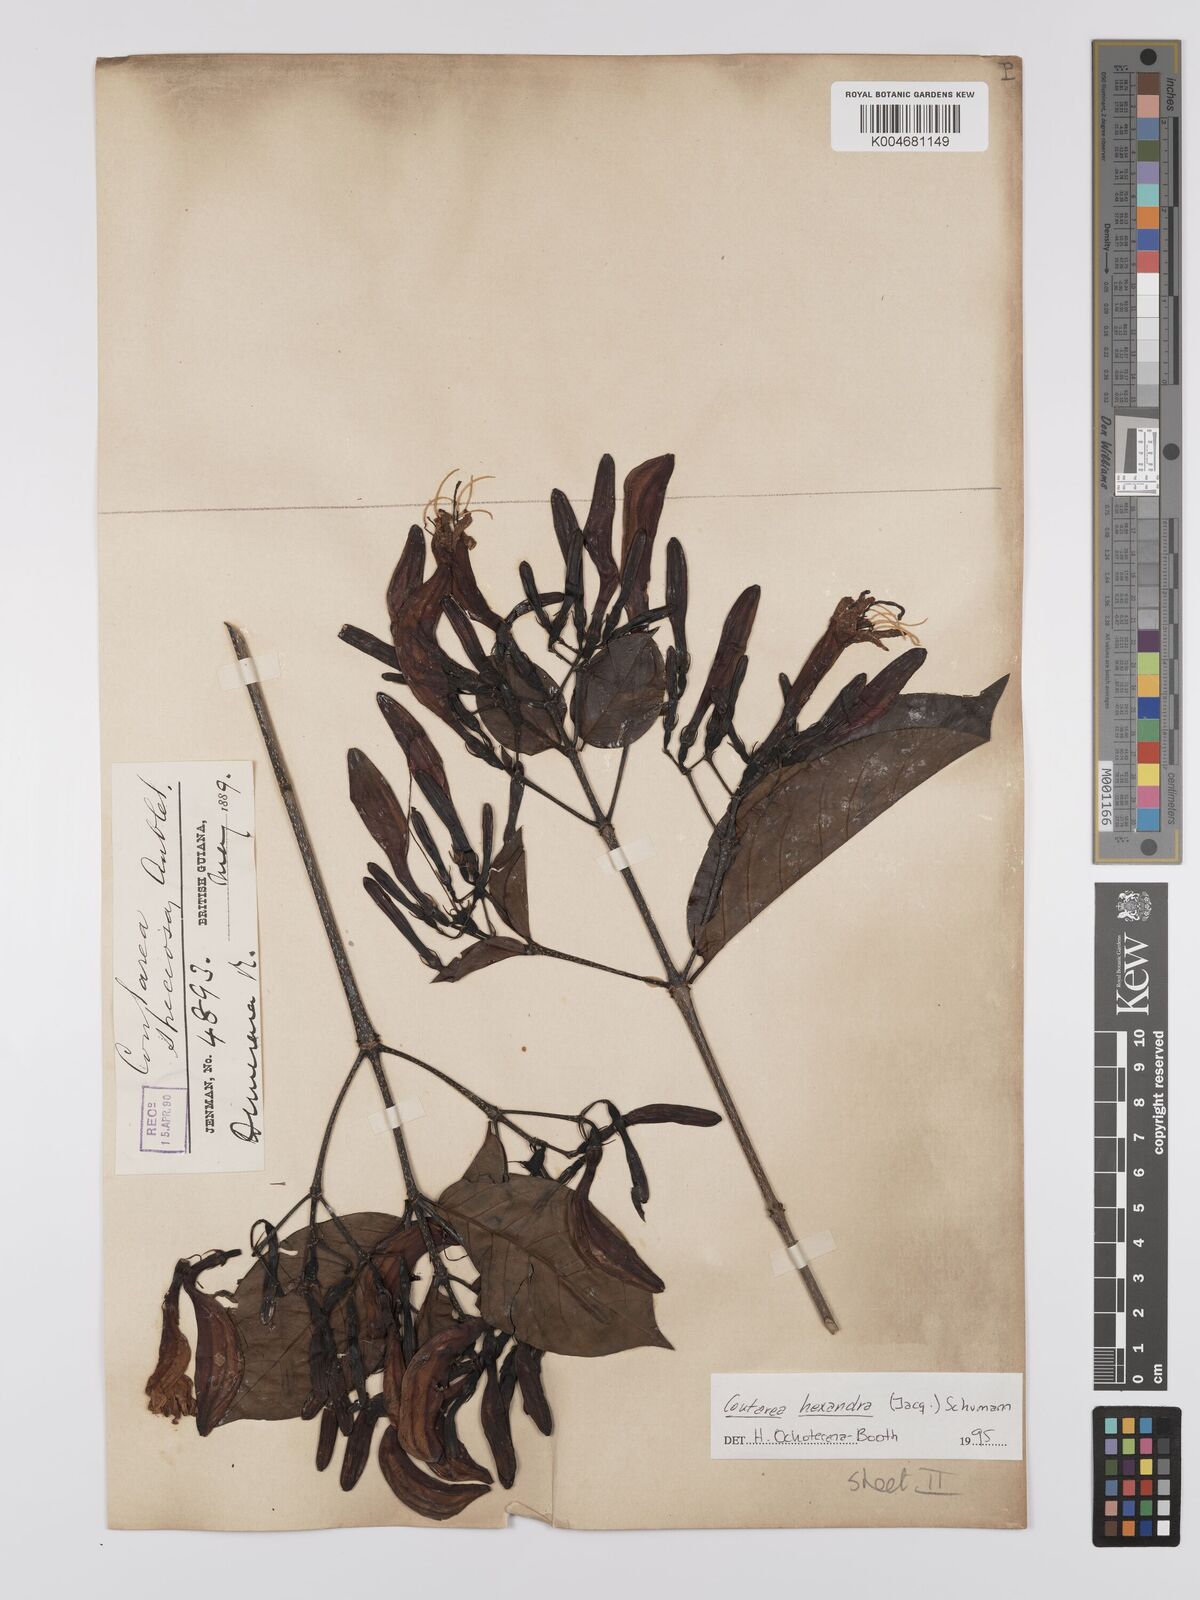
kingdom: Plantae
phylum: Tracheophyta
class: Magnoliopsida
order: Gentianales
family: Rubiaceae
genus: Coutarea
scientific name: Coutarea hexandra
